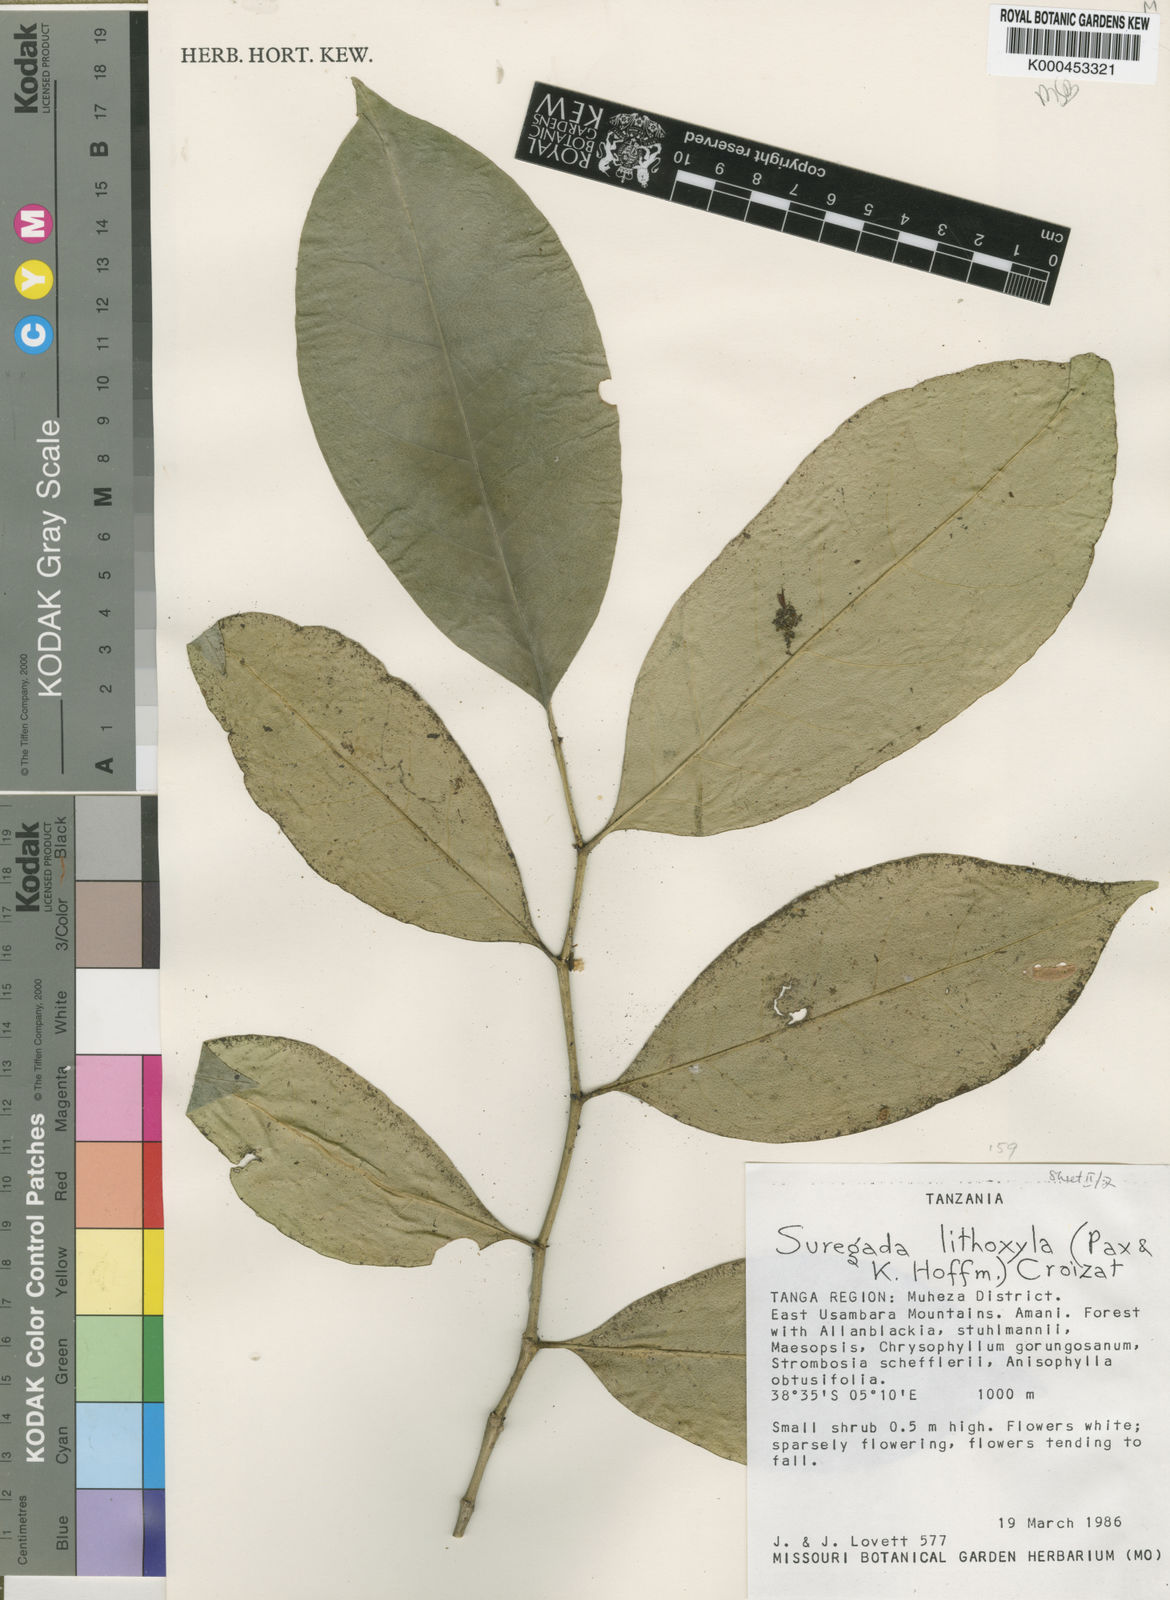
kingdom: Plantae
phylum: Tracheophyta
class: Magnoliopsida
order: Malpighiales
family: Euphorbiaceae
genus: Suregada
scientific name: Suregada lithoxyla
